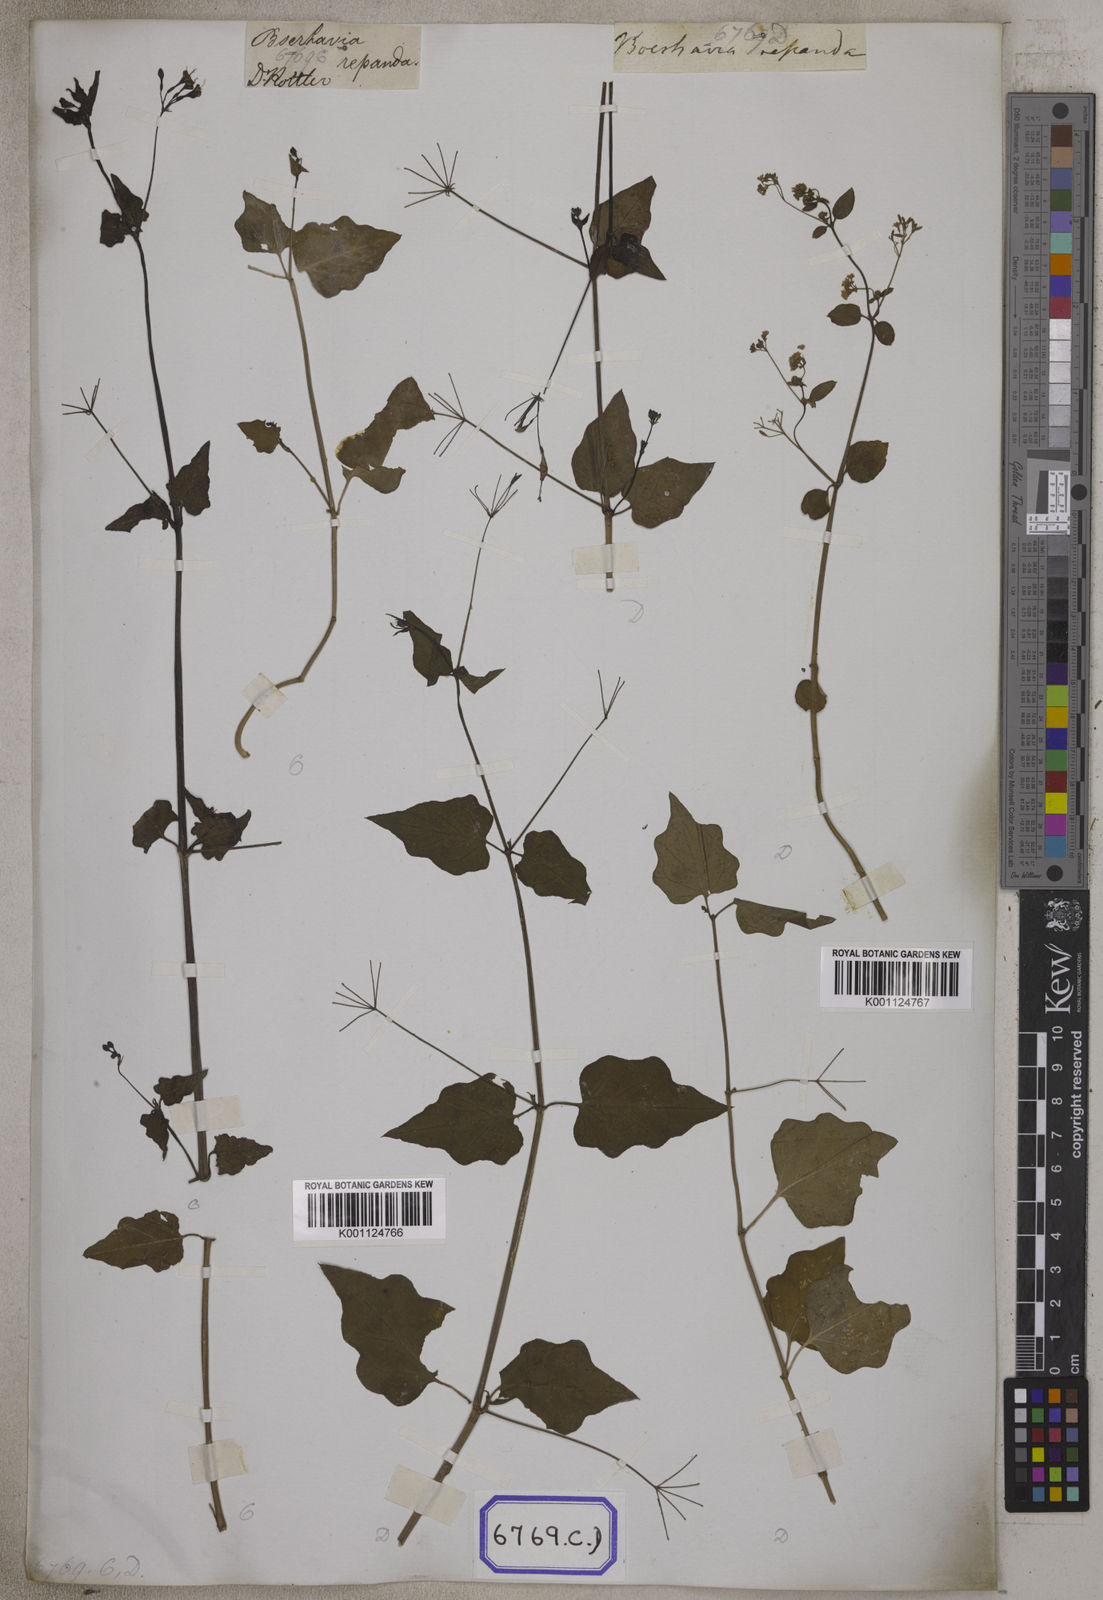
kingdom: Plantae
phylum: Tracheophyta
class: Magnoliopsida
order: Caryophyllales
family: Nyctaginaceae
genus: Commicarpus
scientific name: Commicarpus chinensis
